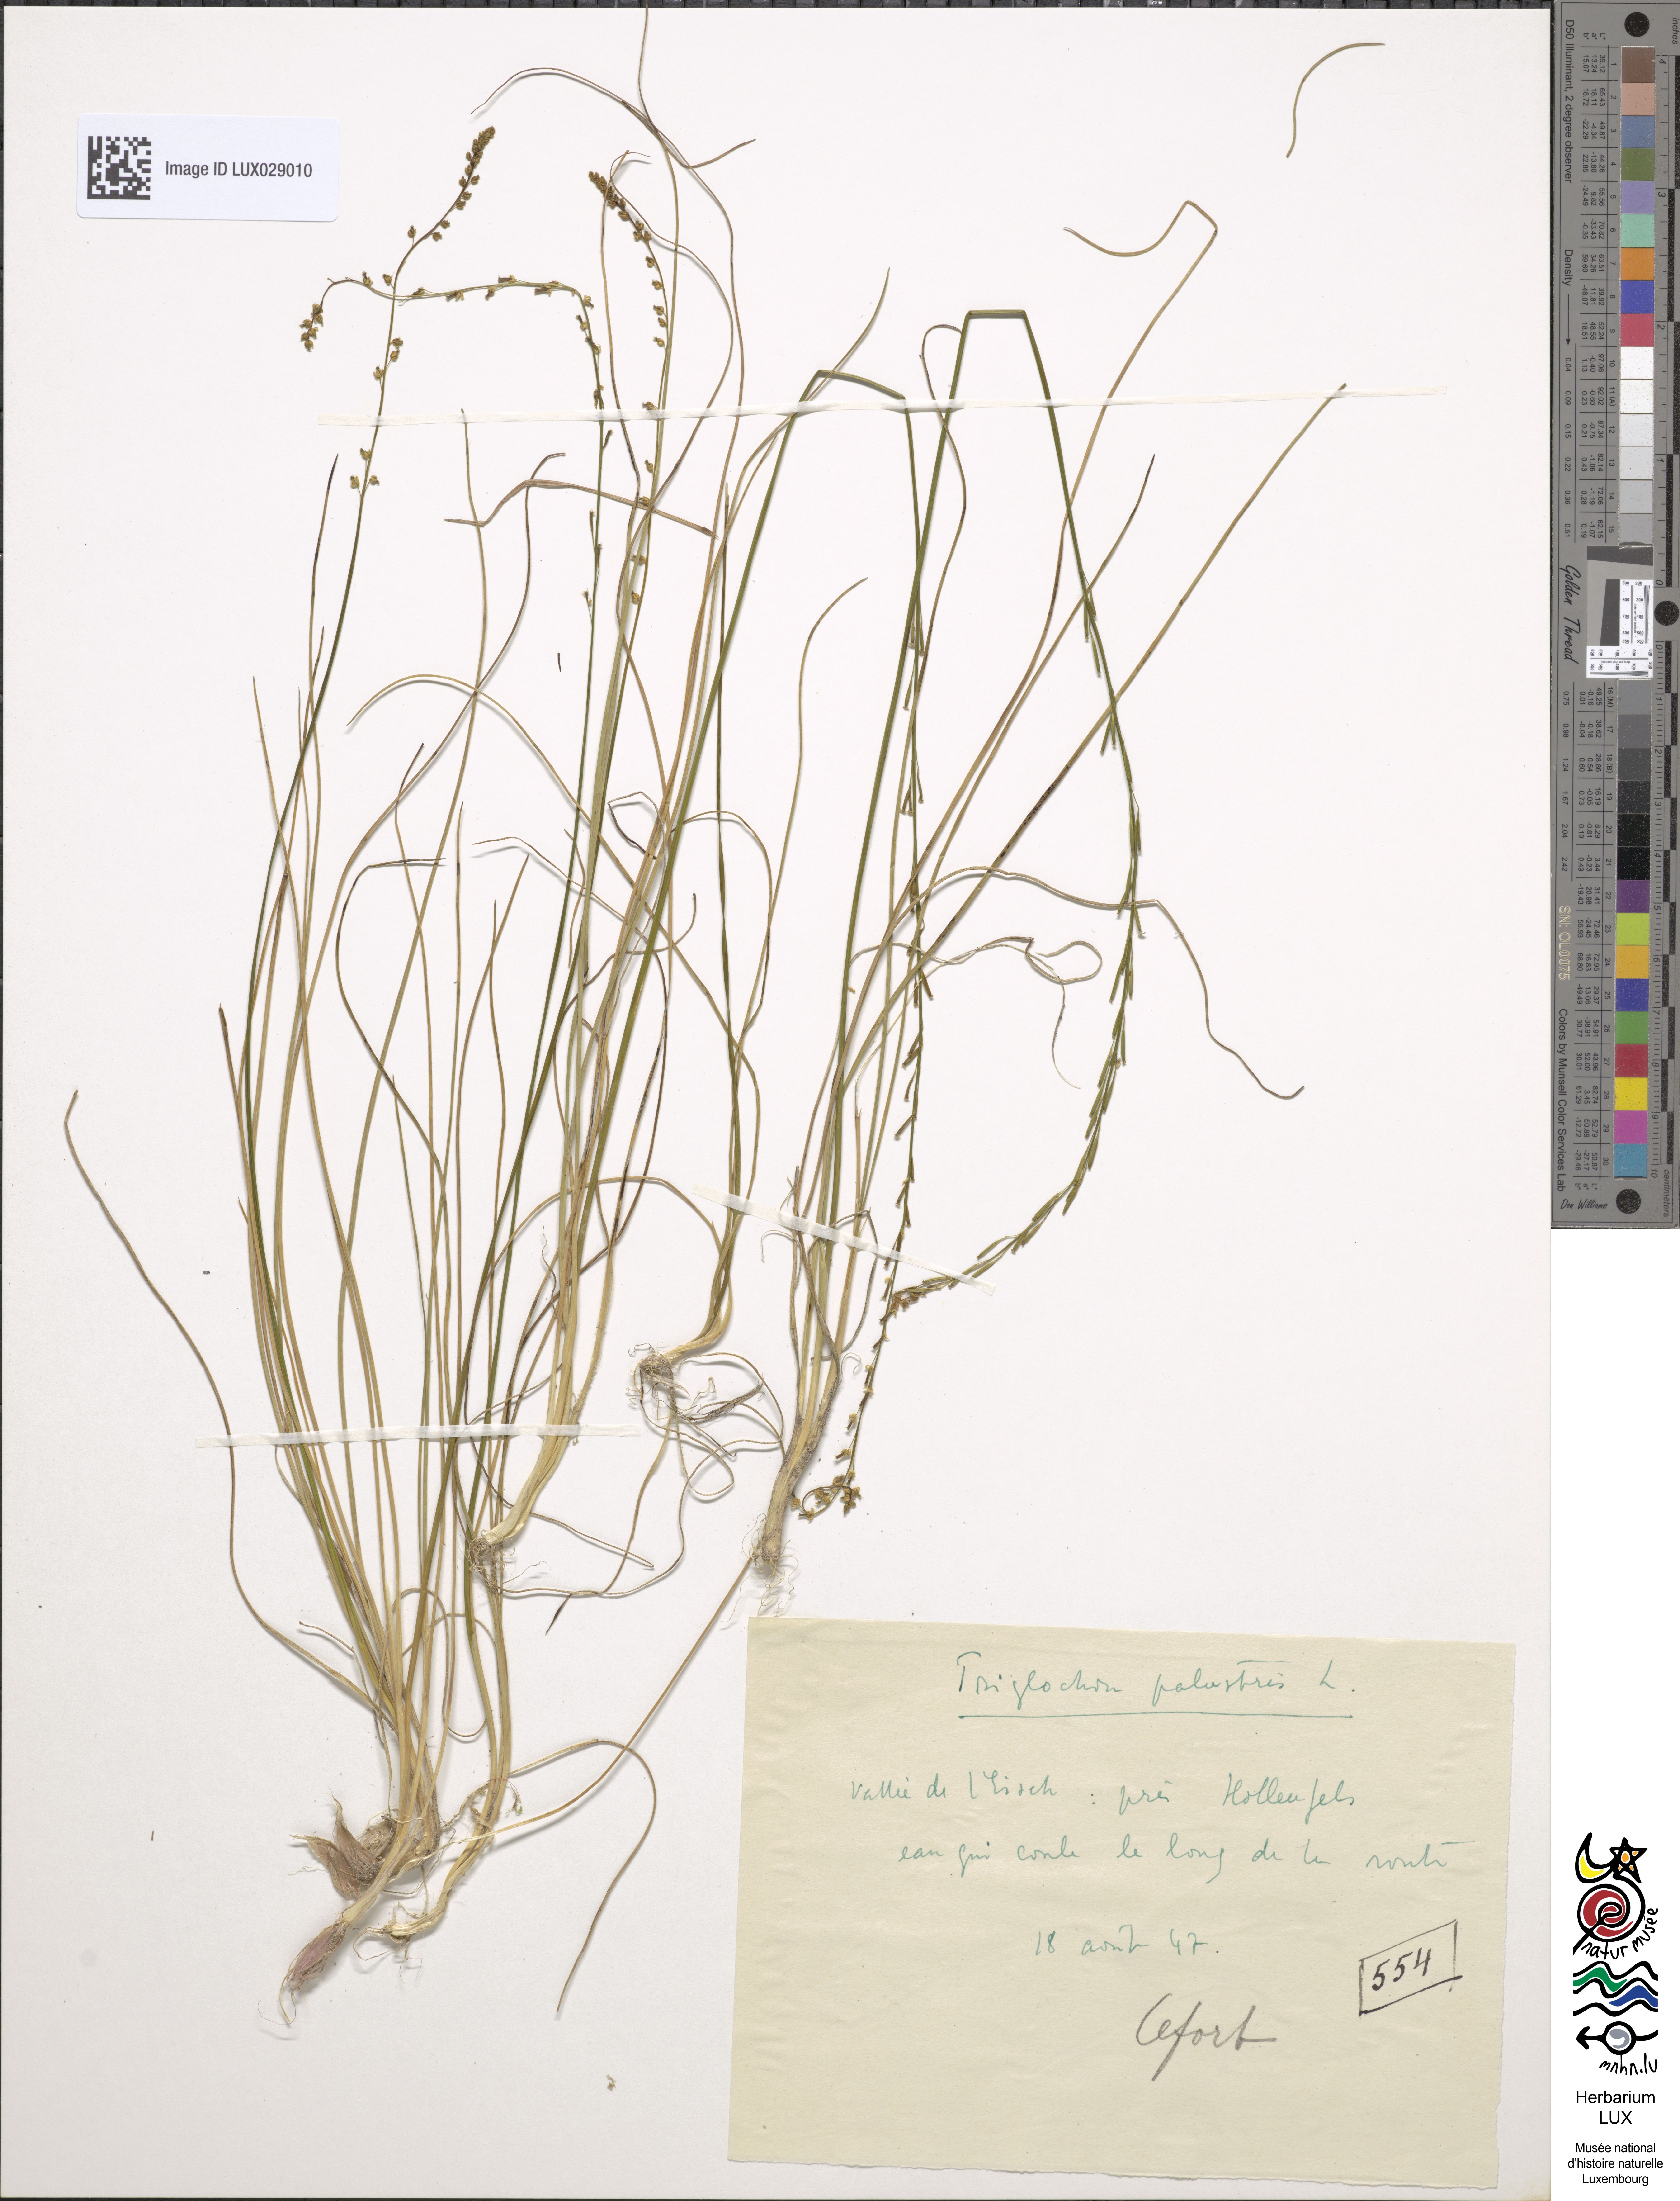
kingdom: Plantae
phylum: Tracheophyta
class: Liliopsida
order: Alismatales
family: Juncaginaceae
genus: Triglochin
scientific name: Triglochin palustris
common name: Marsh arrowgrass
